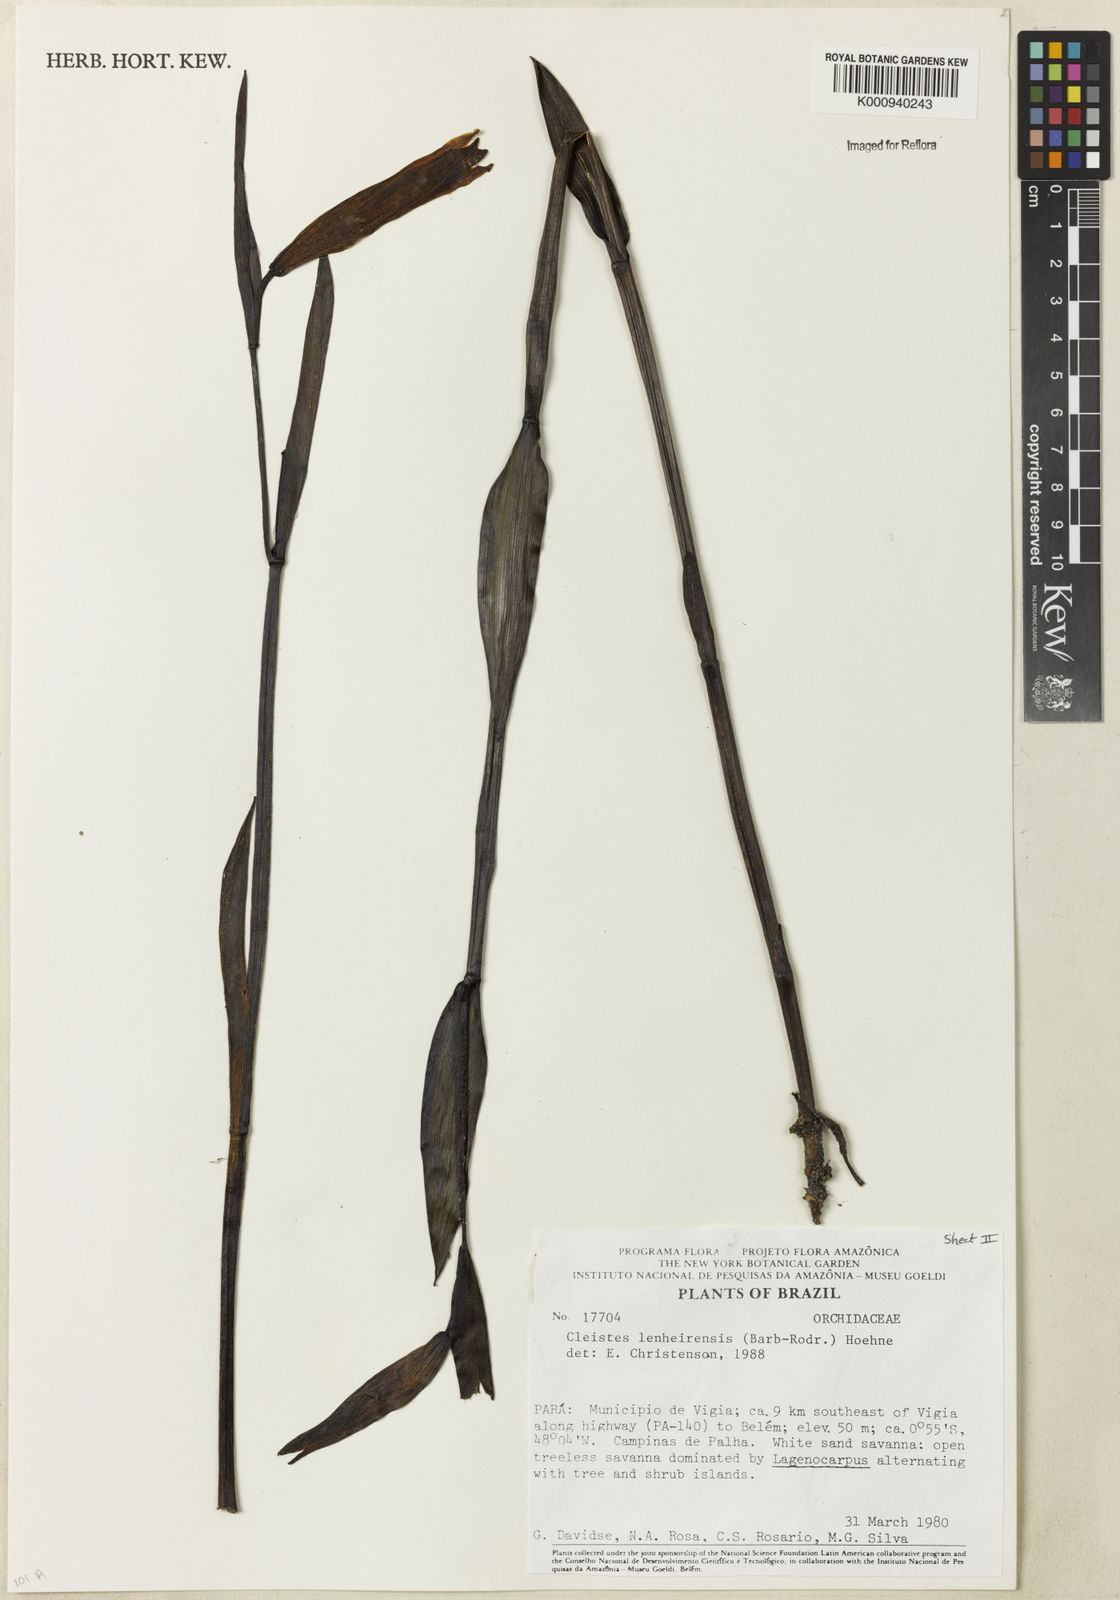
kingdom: Plantae
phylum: Tracheophyta
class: Liliopsida
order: Asparagales
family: Orchidaceae
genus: Cleistes
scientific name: Cleistes speciosa
